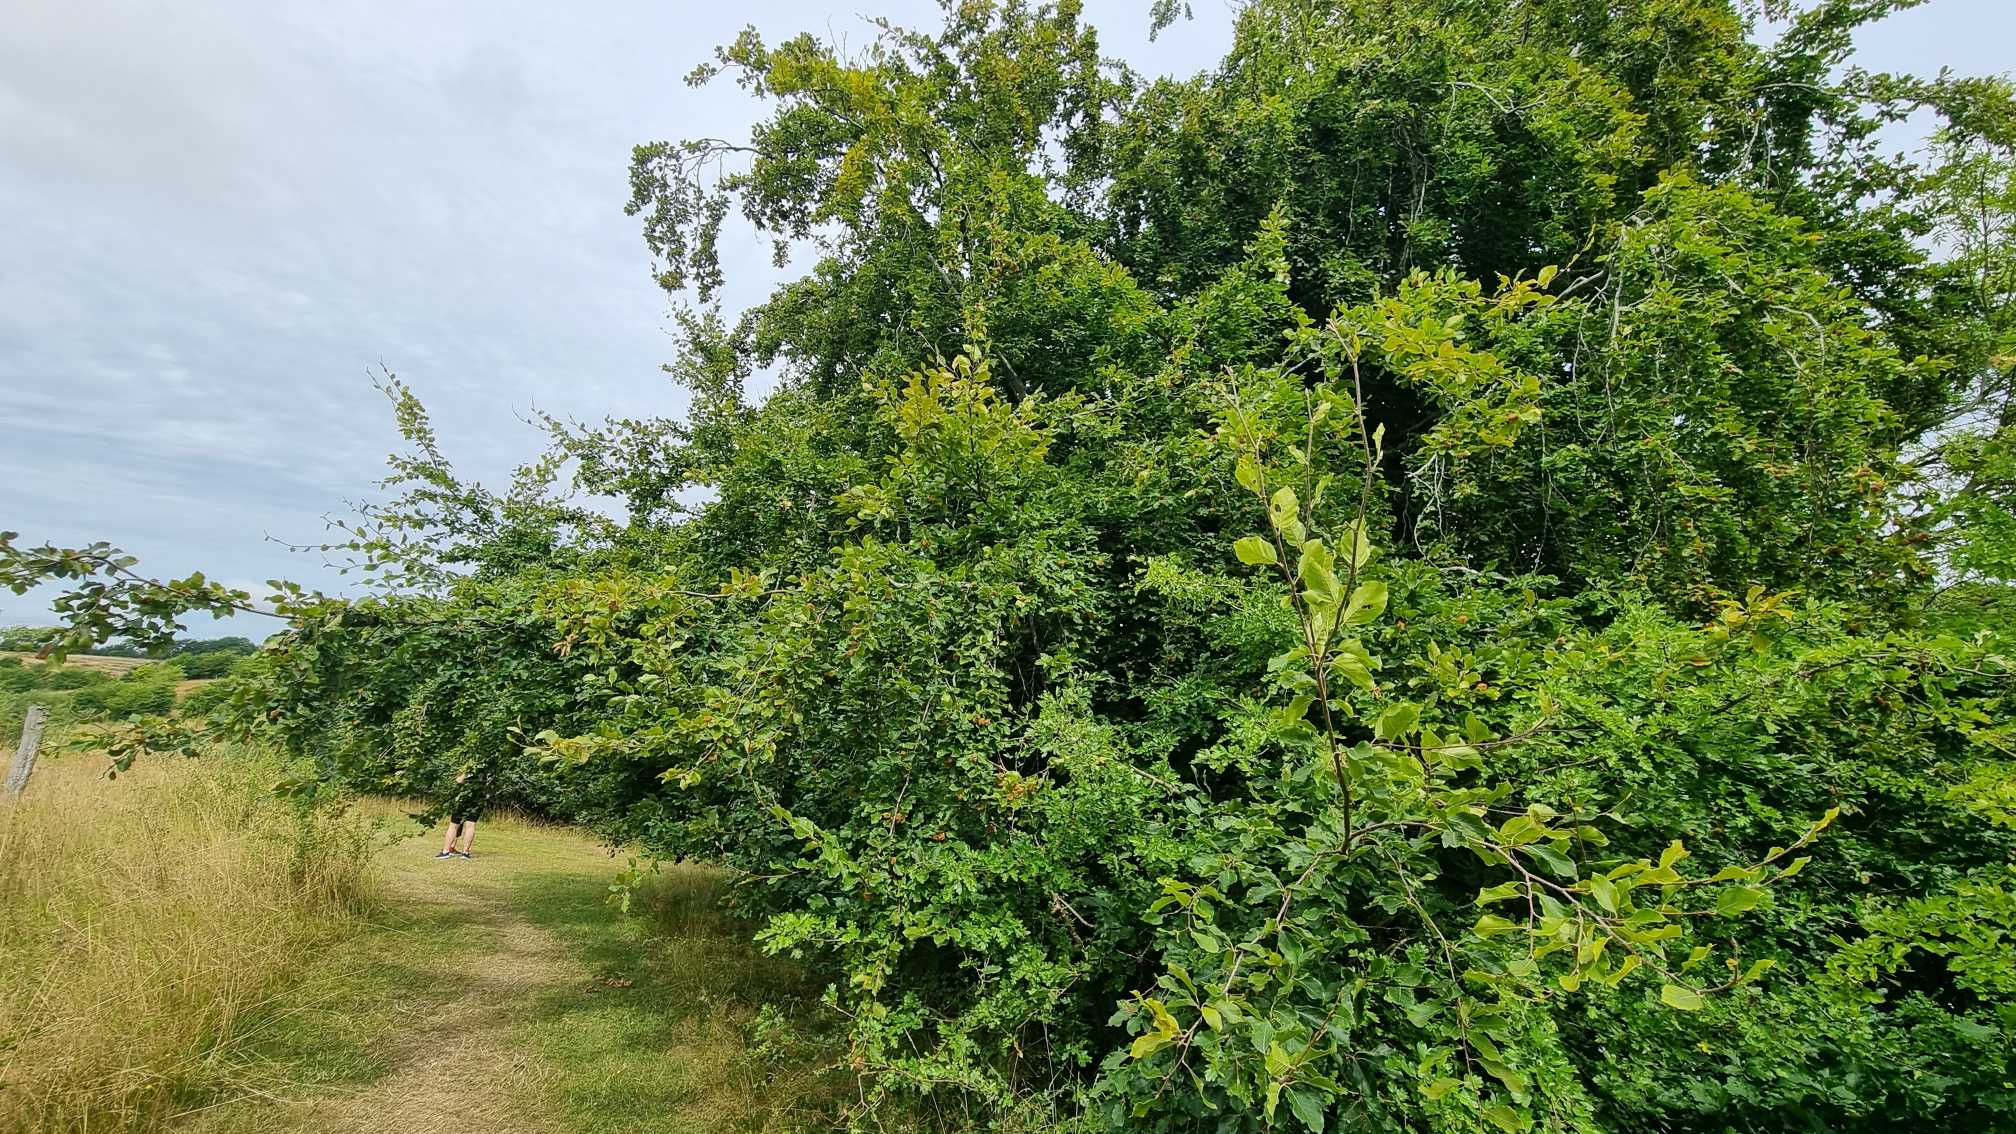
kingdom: Plantae
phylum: Tracheophyta
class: Magnoliopsida
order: Fagales
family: Fagaceae
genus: Fagus
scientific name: Fagus sylvatica
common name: Bøg
